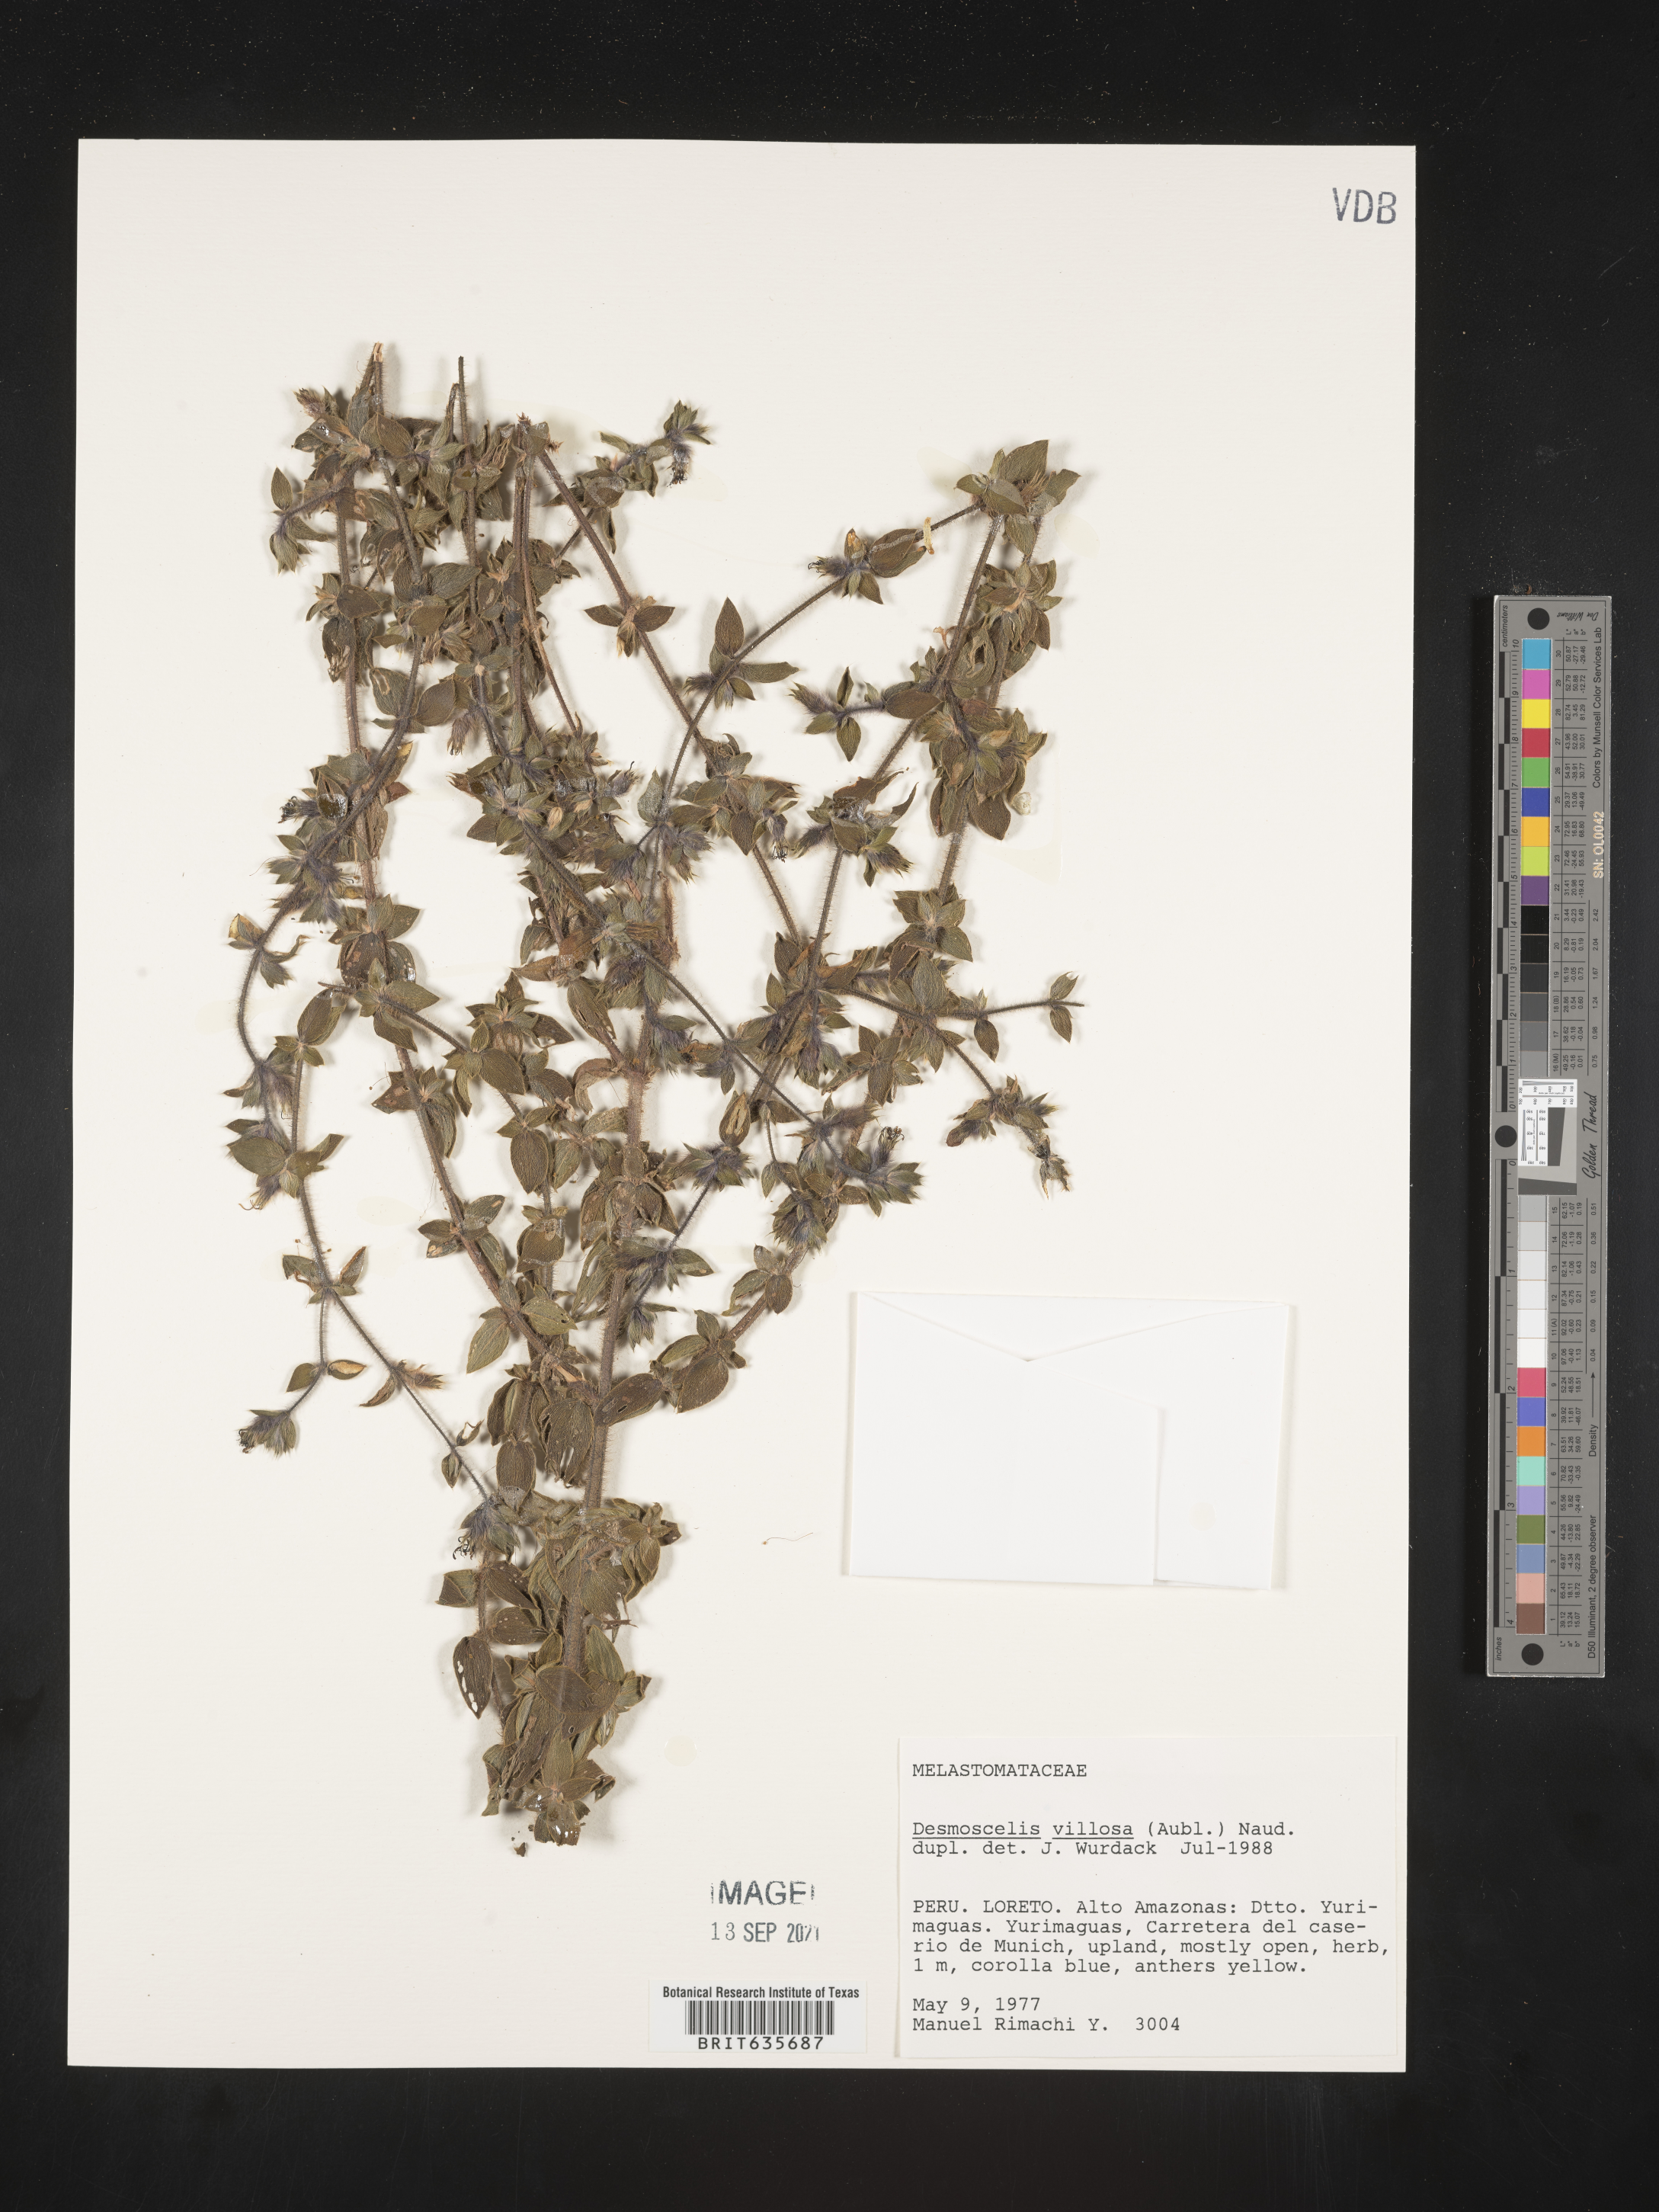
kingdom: Plantae
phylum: Tracheophyta
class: Magnoliopsida
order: Myrtales
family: Melastomataceae
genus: Desmoscelis
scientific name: Desmoscelis
